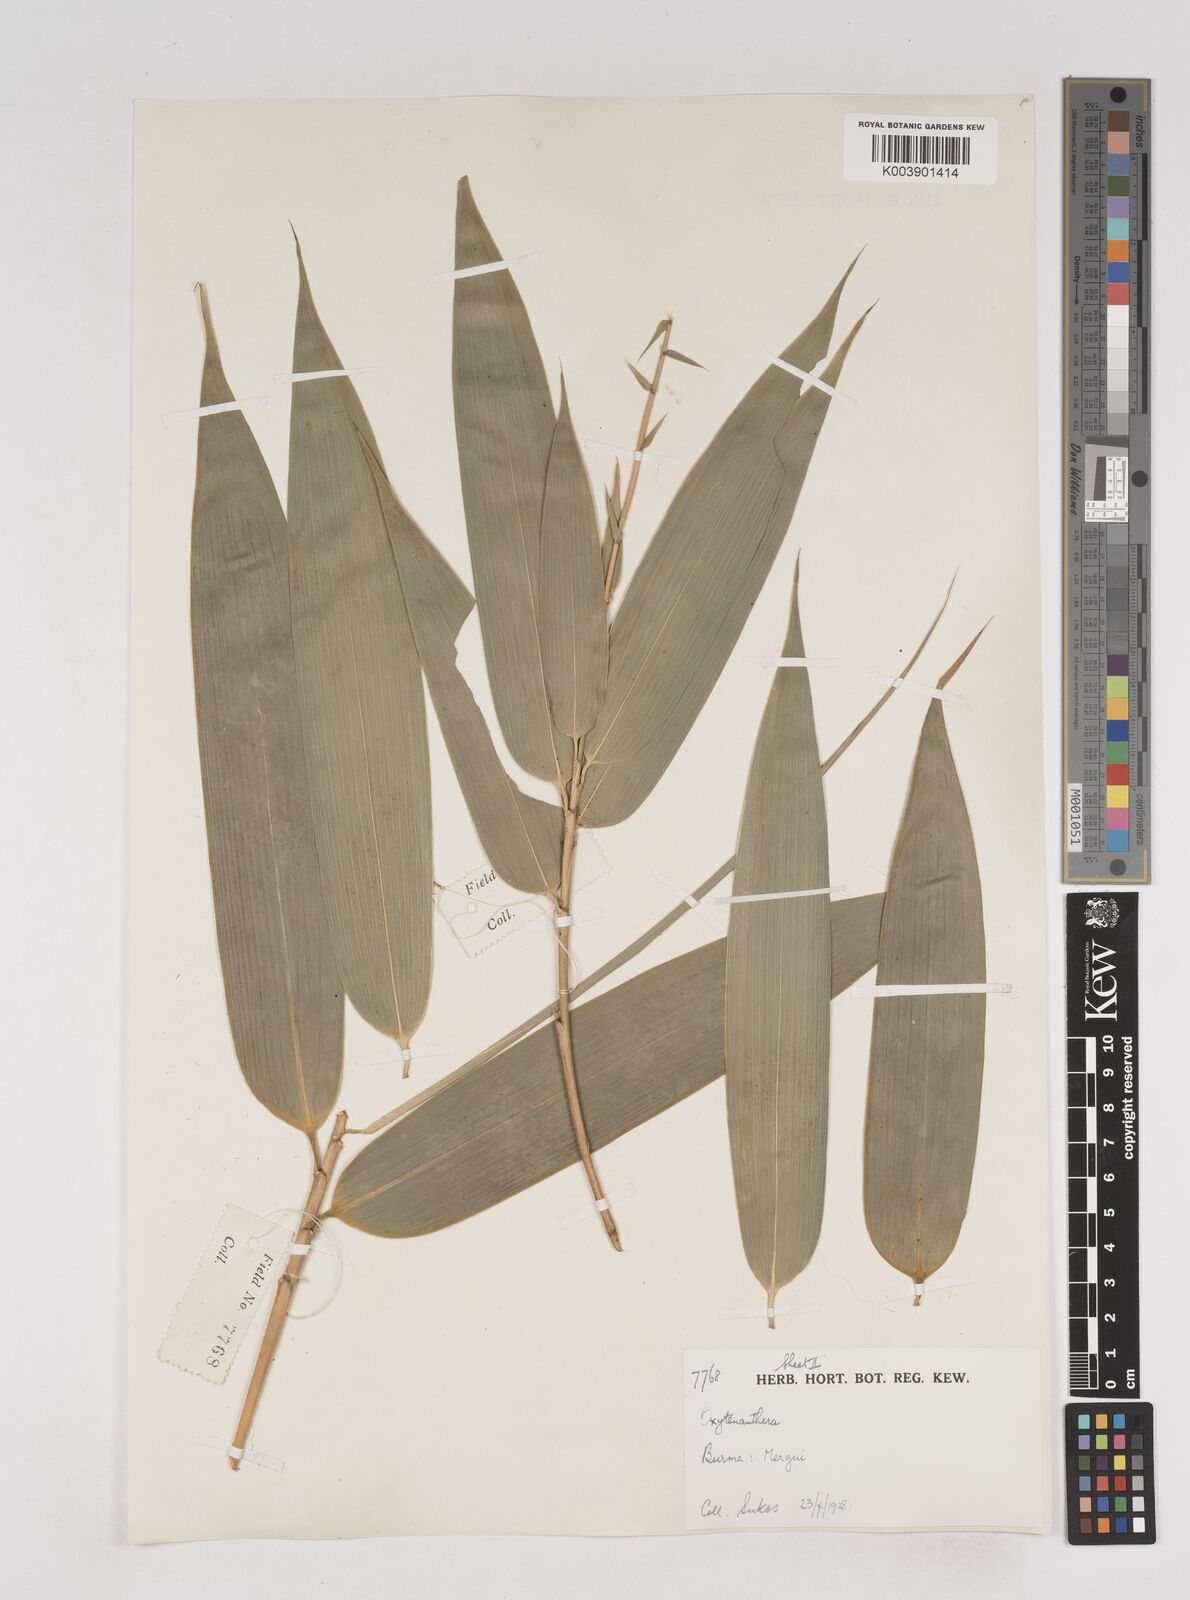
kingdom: Plantae
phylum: Tracheophyta
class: Liliopsida
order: Poales
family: Poaceae
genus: Schizostachyum
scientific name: Schizostachyum
